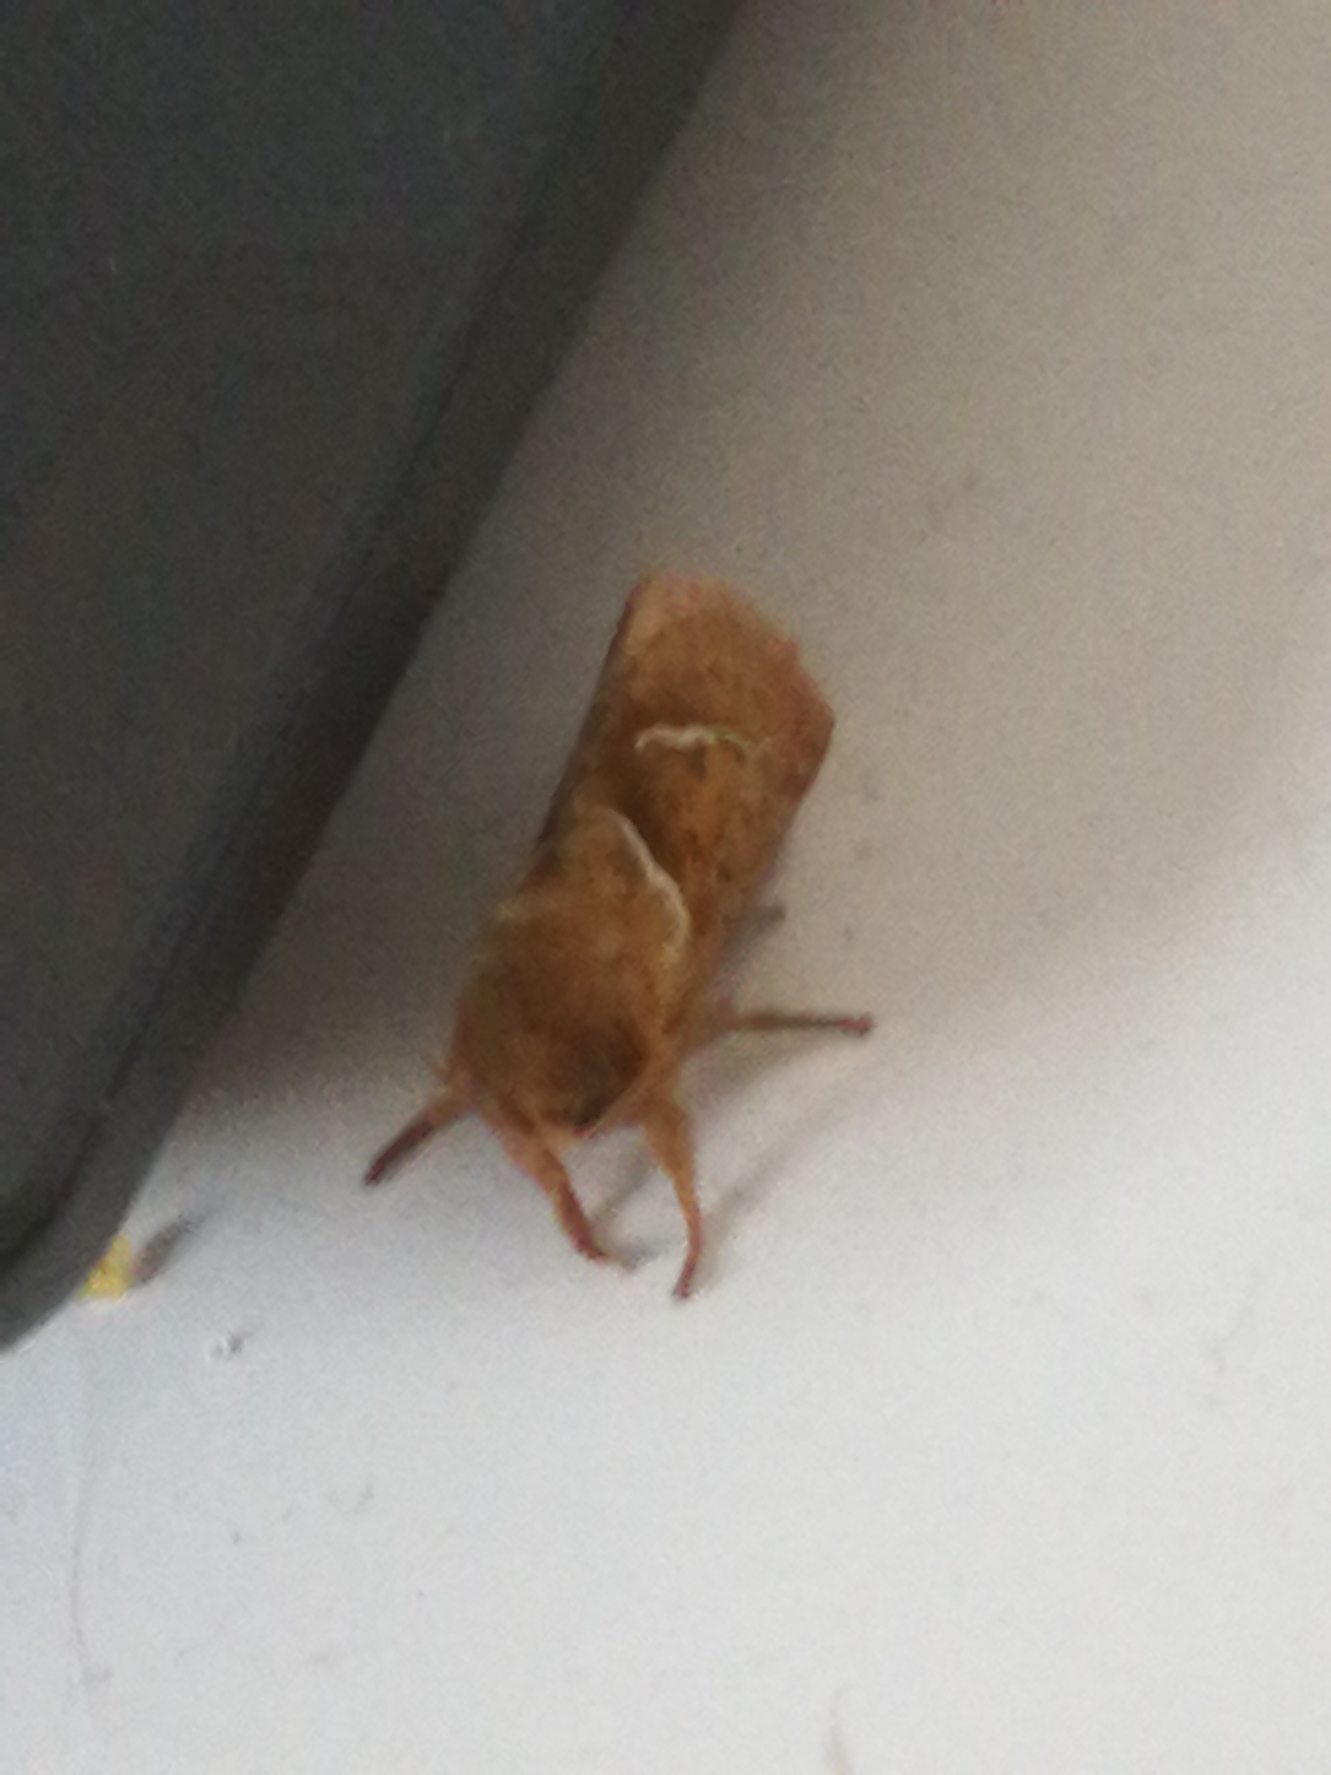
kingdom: Animalia
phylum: Arthropoda
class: Insecta
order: Lepidoptera
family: Hepialidae
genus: Triodia
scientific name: Triodia sylvina
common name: Skræpperodæder
